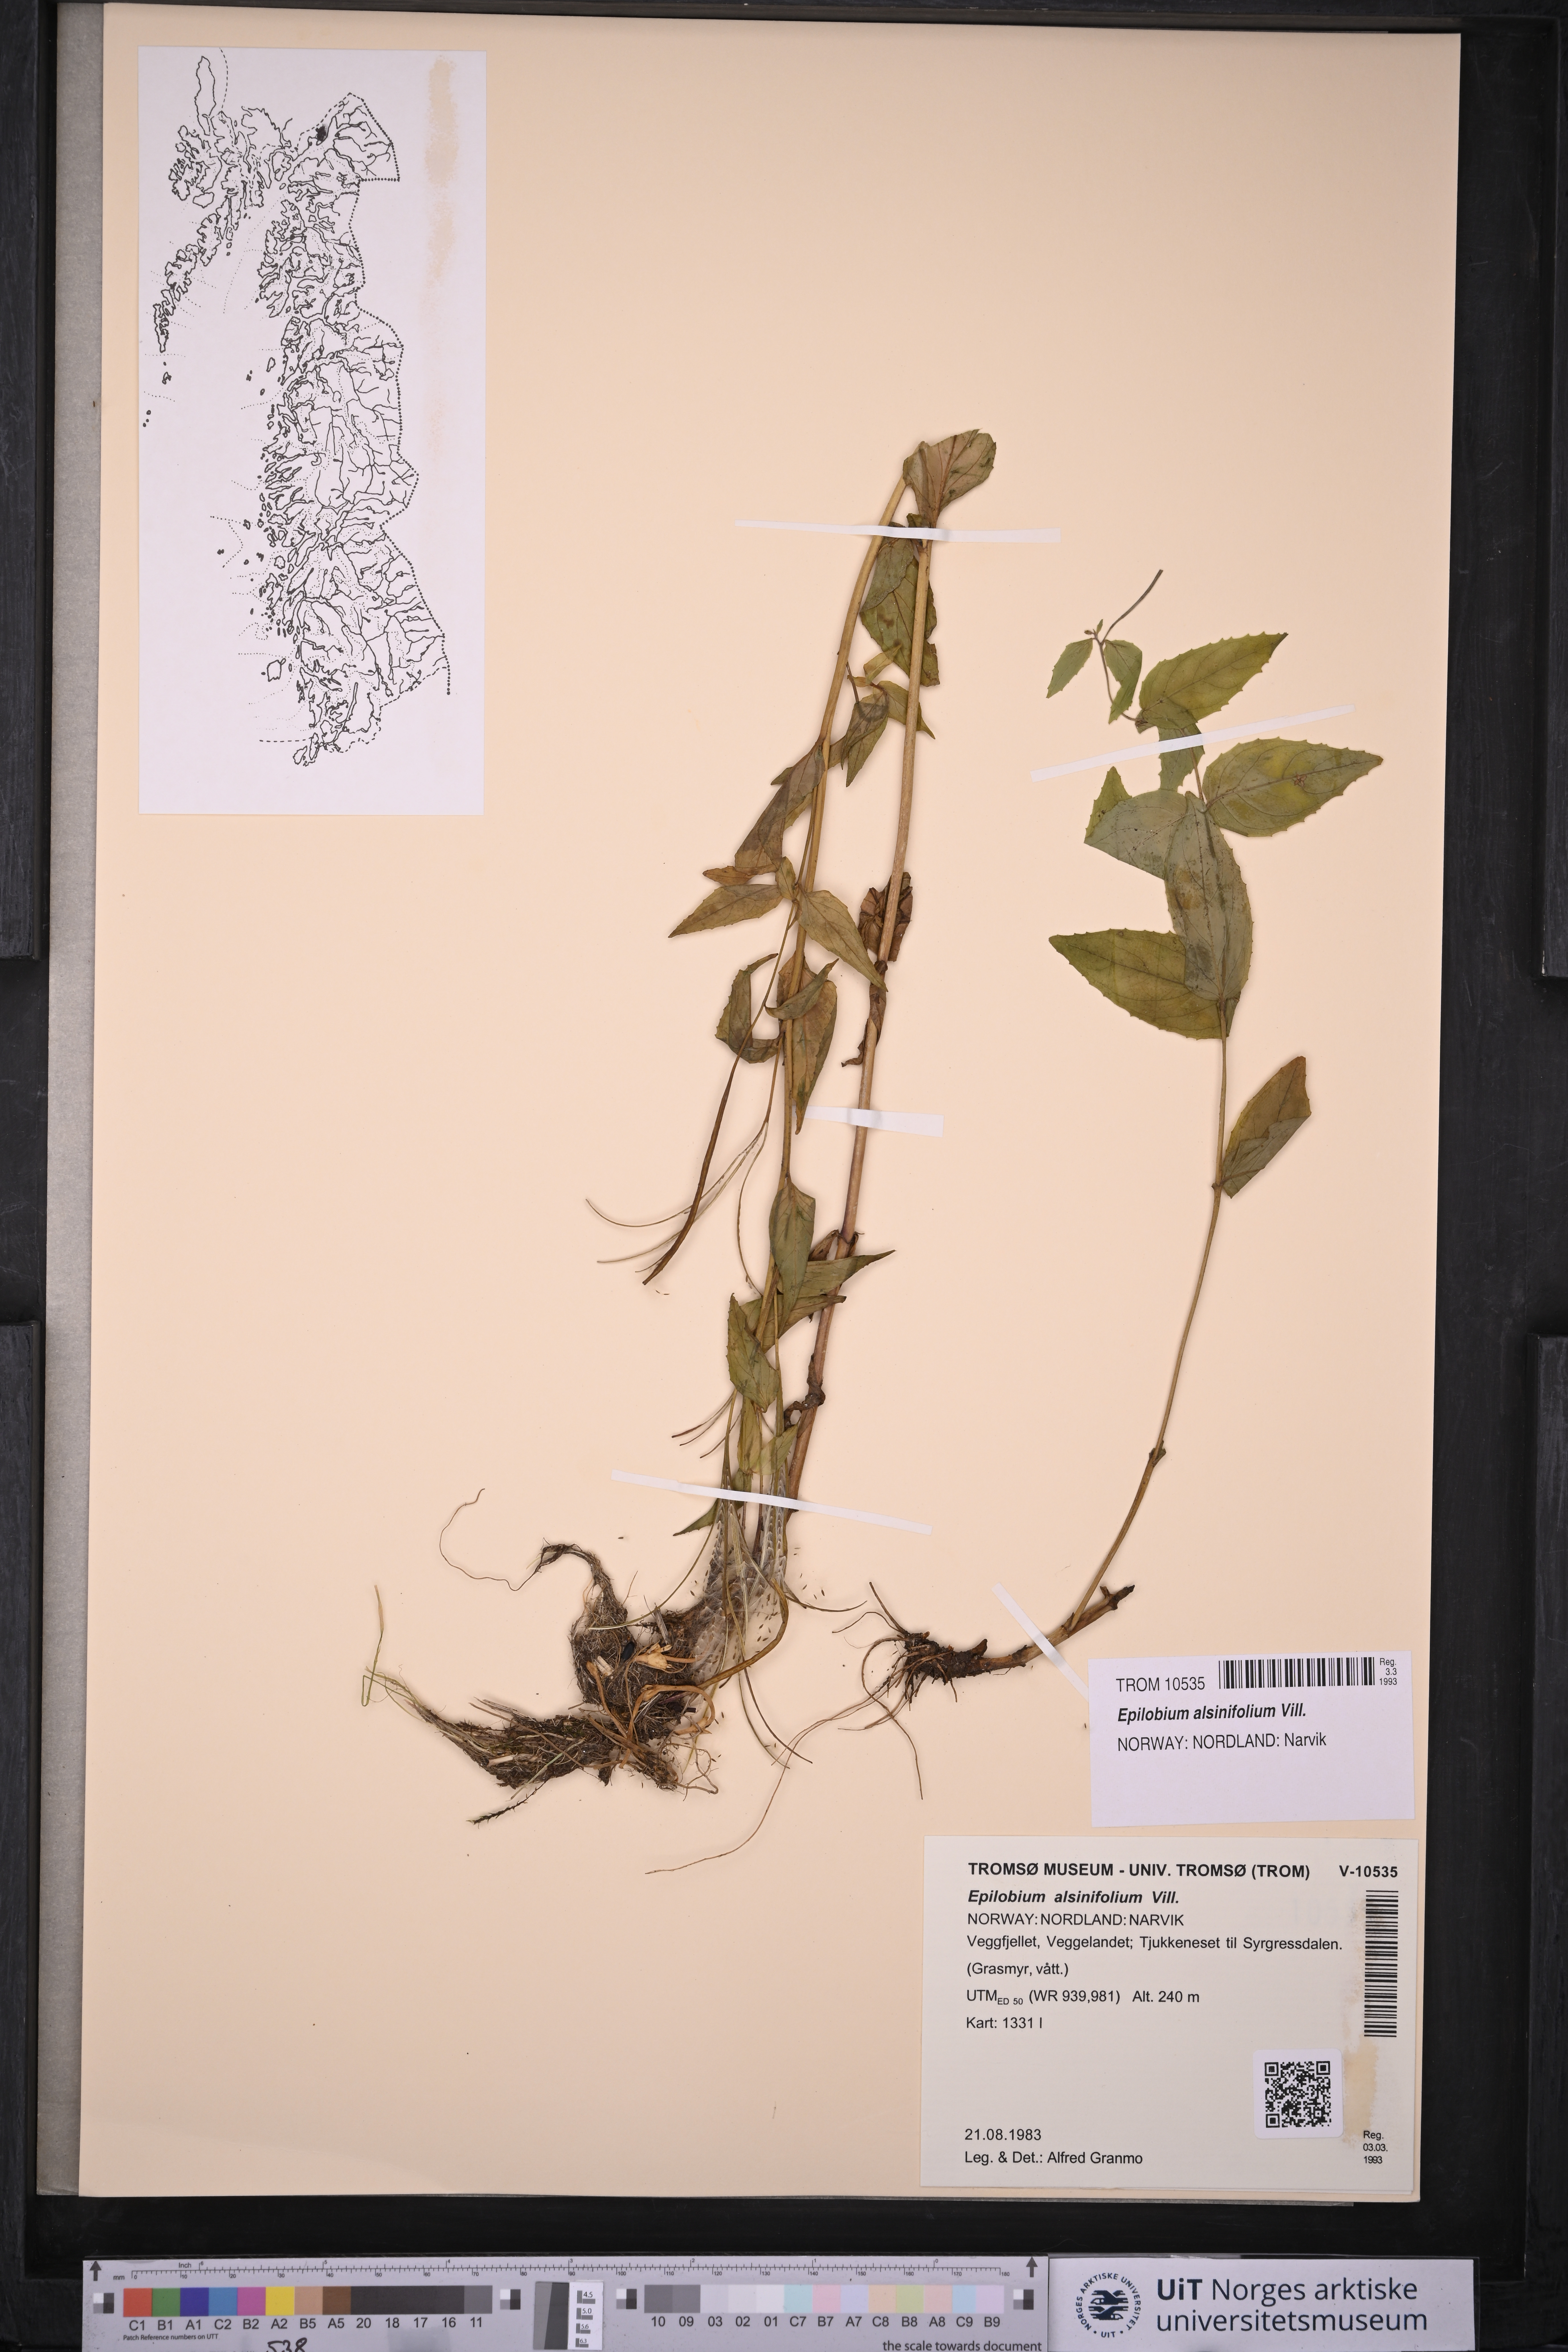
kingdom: Plantae
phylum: Tracheophyta
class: Magnoliopsida
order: Myrtales
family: Onagraceae
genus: Epilobium
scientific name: Epilobium alsinifolium
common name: Chickweed willowherb
